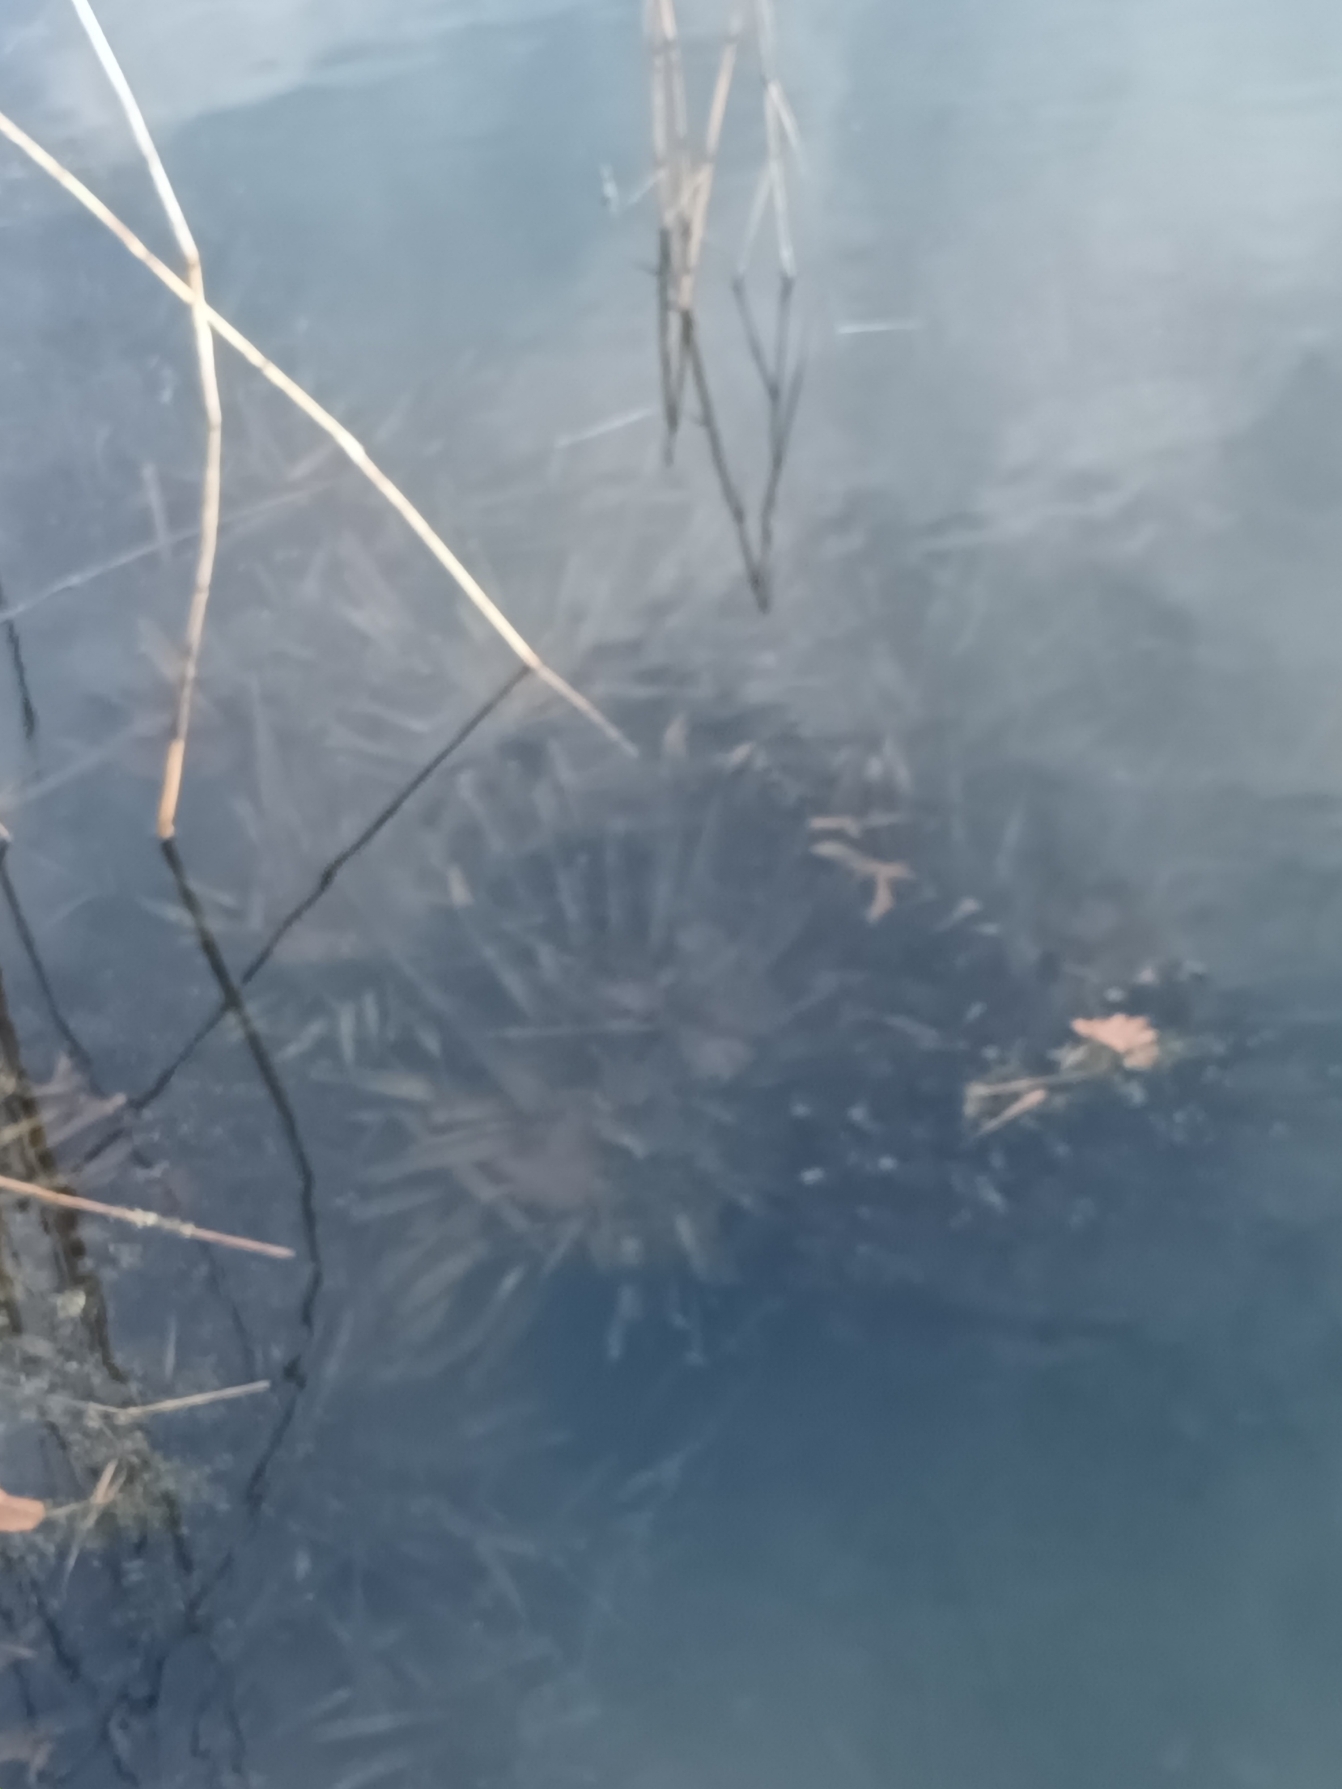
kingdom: Plantae
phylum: Tracheophyta
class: Liliopsida
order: Alismatales
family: Hydrocharitaceae
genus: Stratiotes
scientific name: Stratiotes aloides
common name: Krebseklo
